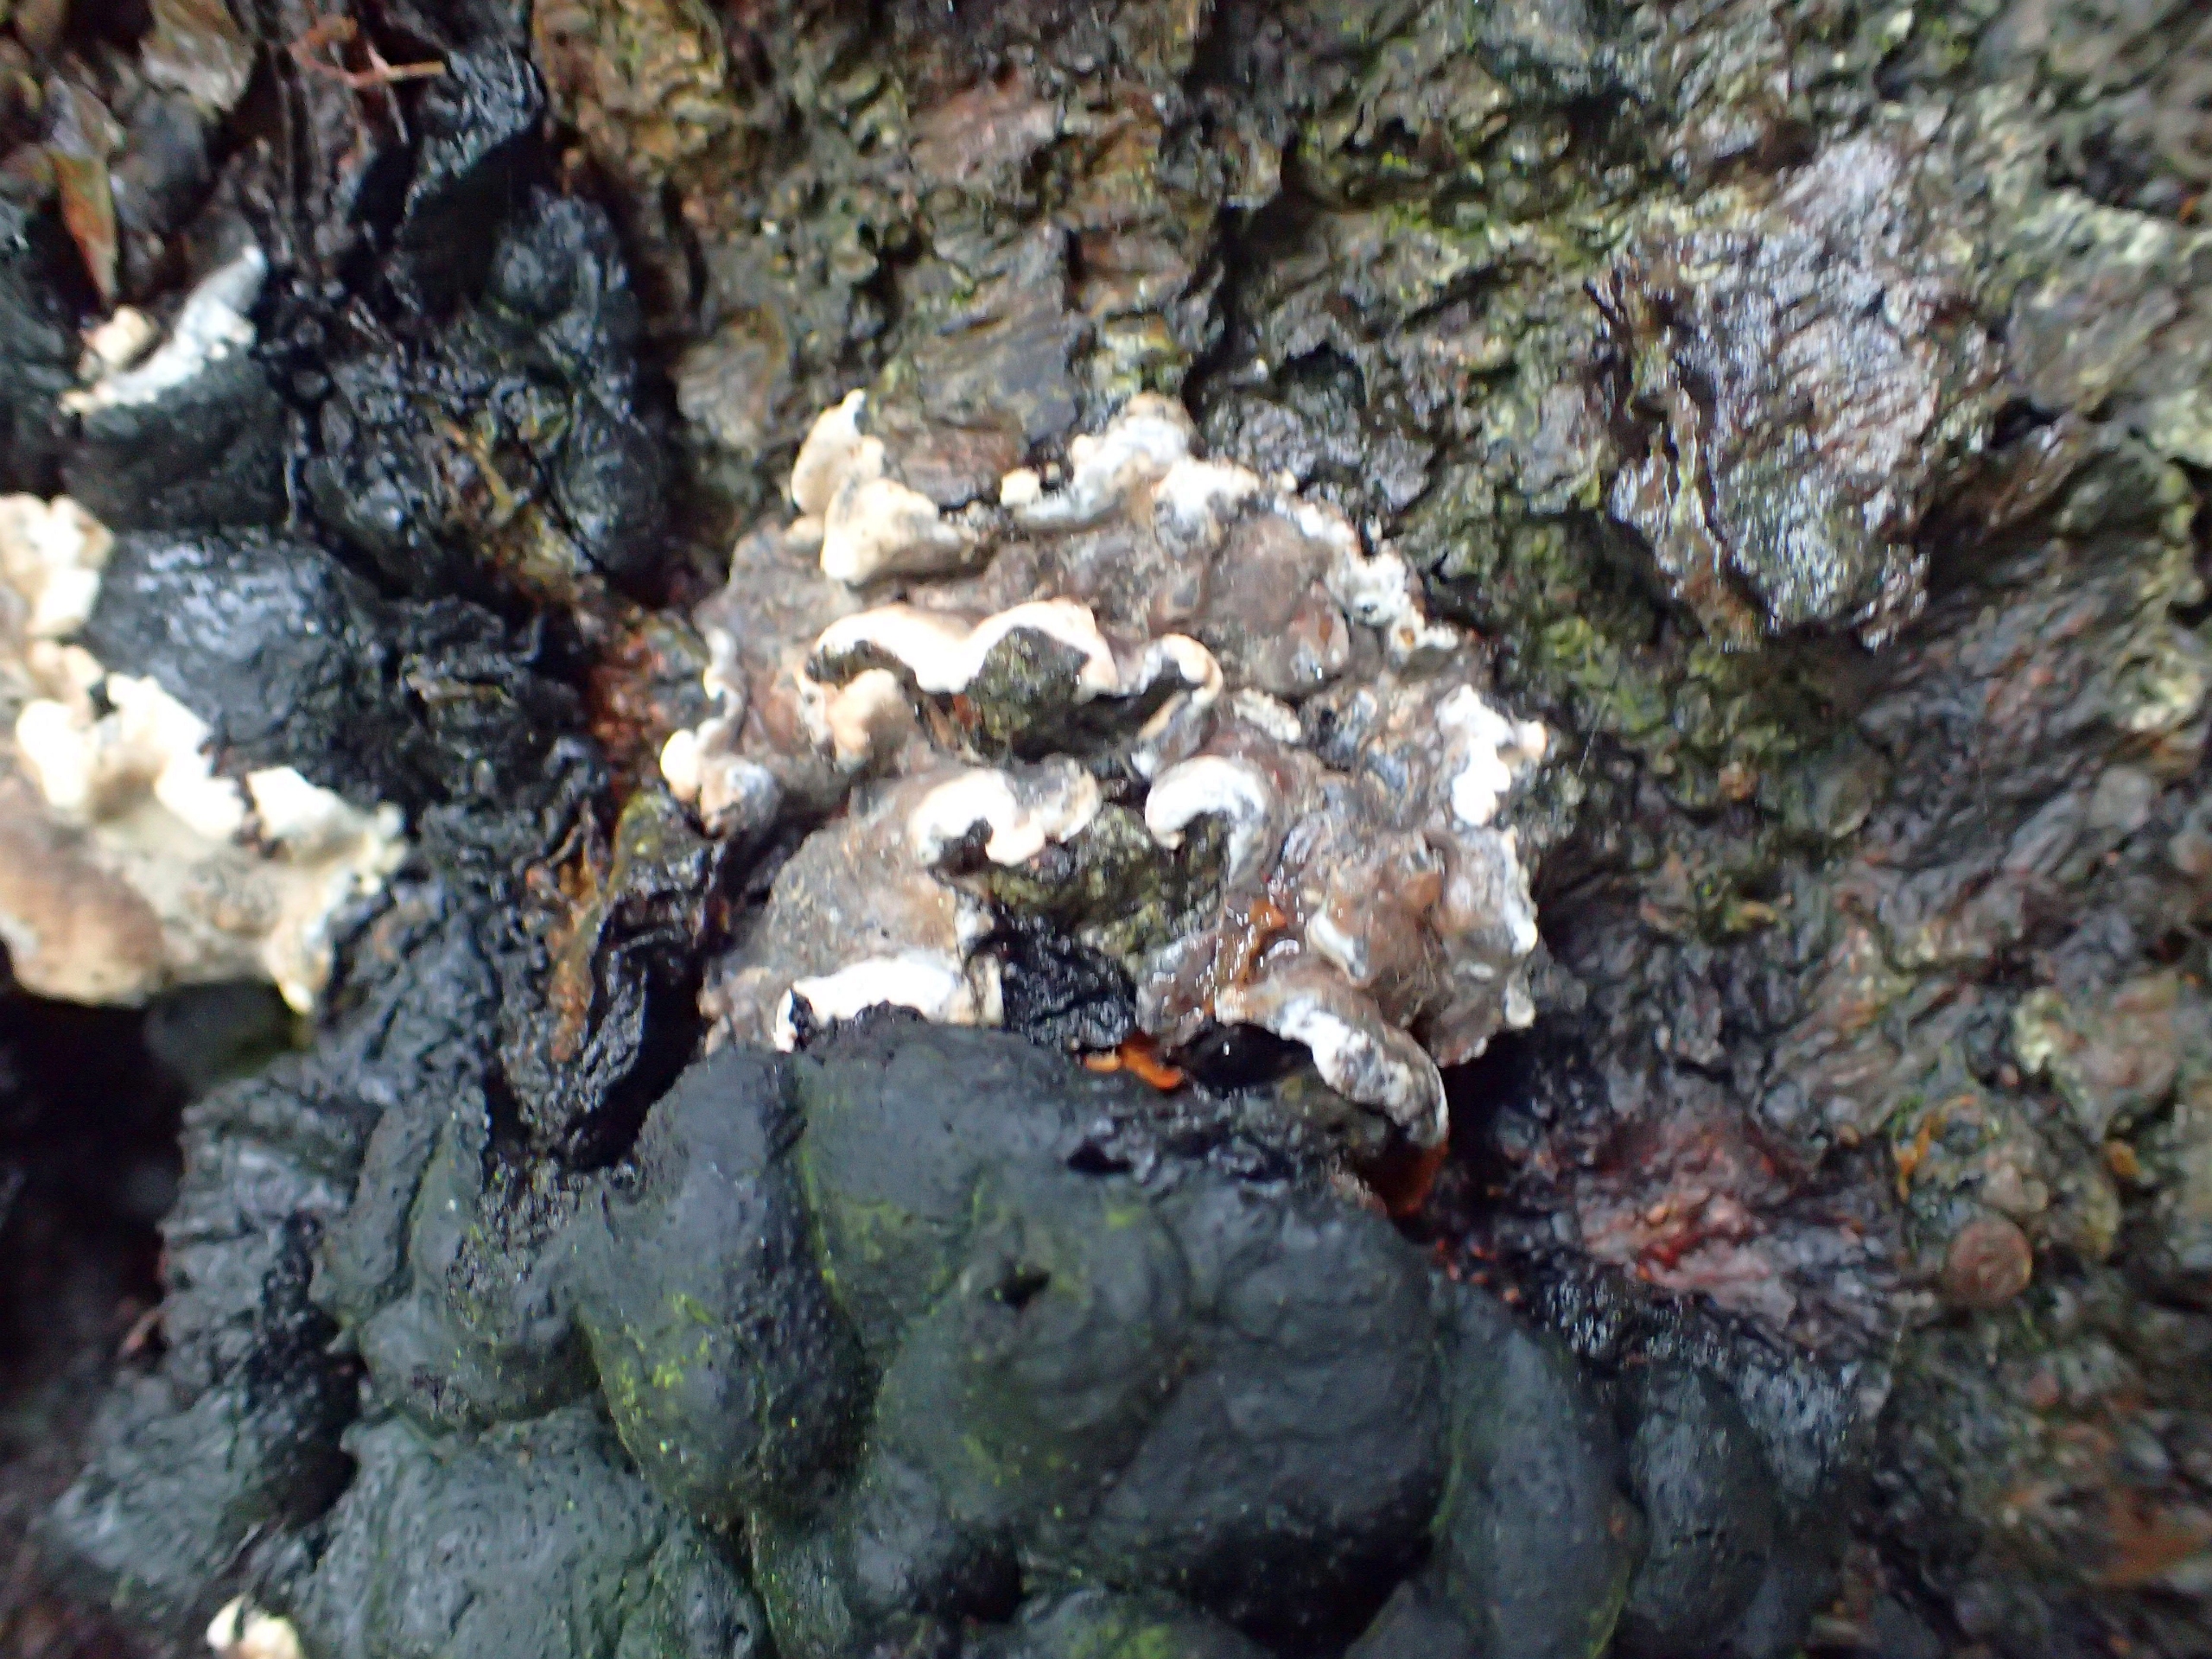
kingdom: Fungi
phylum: Ascomycota
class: Sordariomycetes
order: Xylariales
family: Xylariaceae
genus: Kretzschmaria
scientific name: Kretzschmaria deusta
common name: Stor kulsvamp
